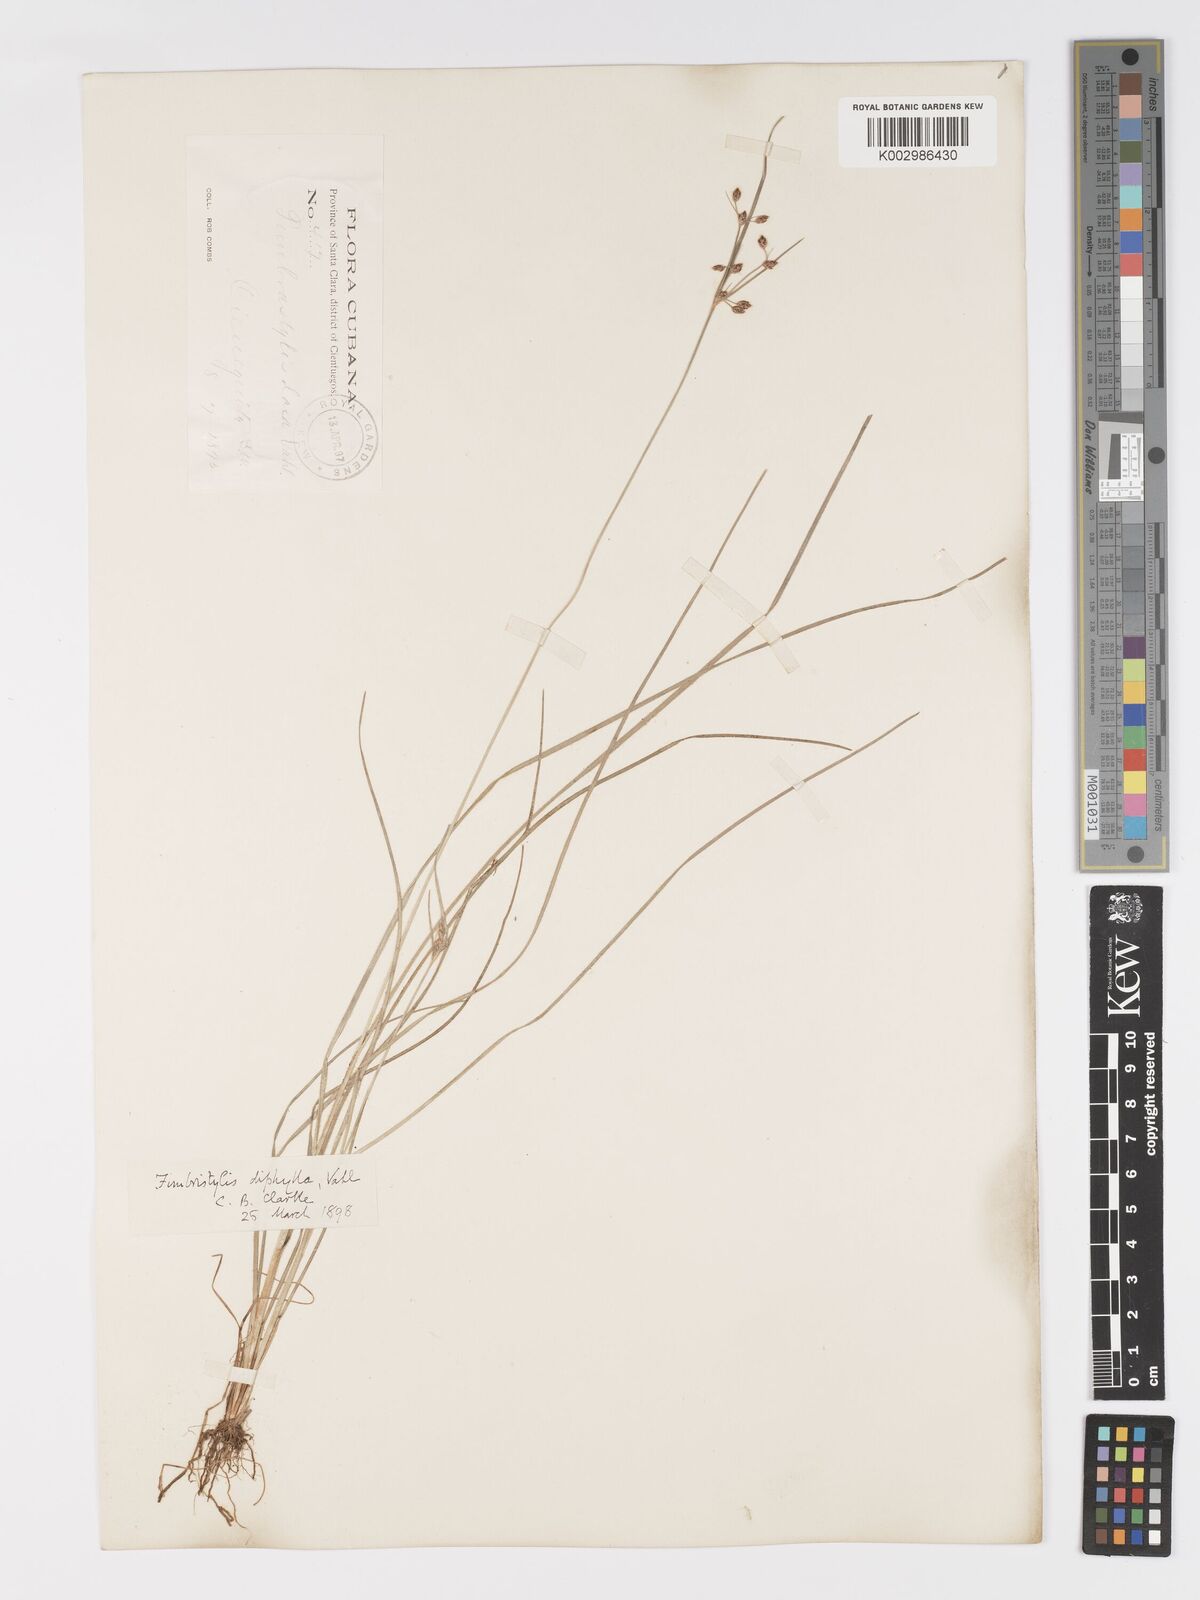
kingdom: Plantae
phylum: Tracheophyta
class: Liliopsida
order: Poales
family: Cyperaceae
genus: Fimbristylis
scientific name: Fimbristylis dichotoma
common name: Forked fimbry
